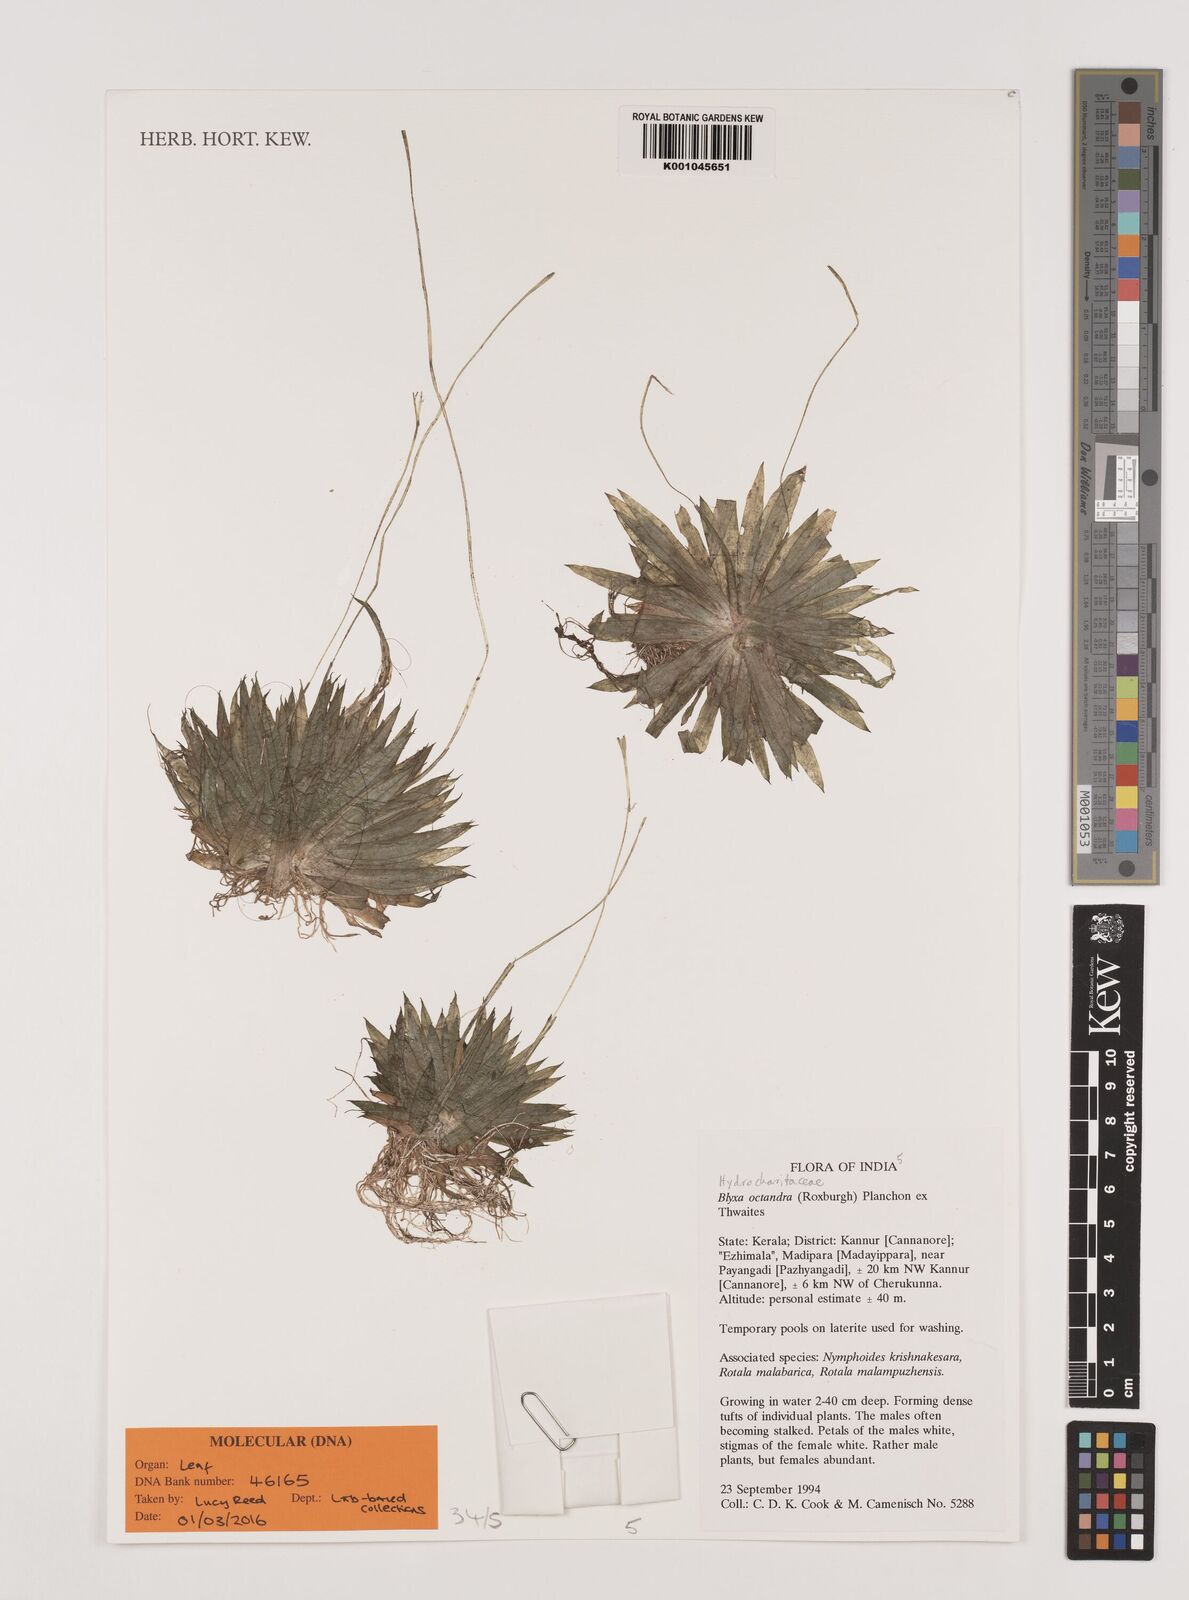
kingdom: Plantae
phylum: Tracheophyta
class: Liliopsida
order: Alismatales
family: Hydrocharitaceae
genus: Blyxa
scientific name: Blyxa octandra
